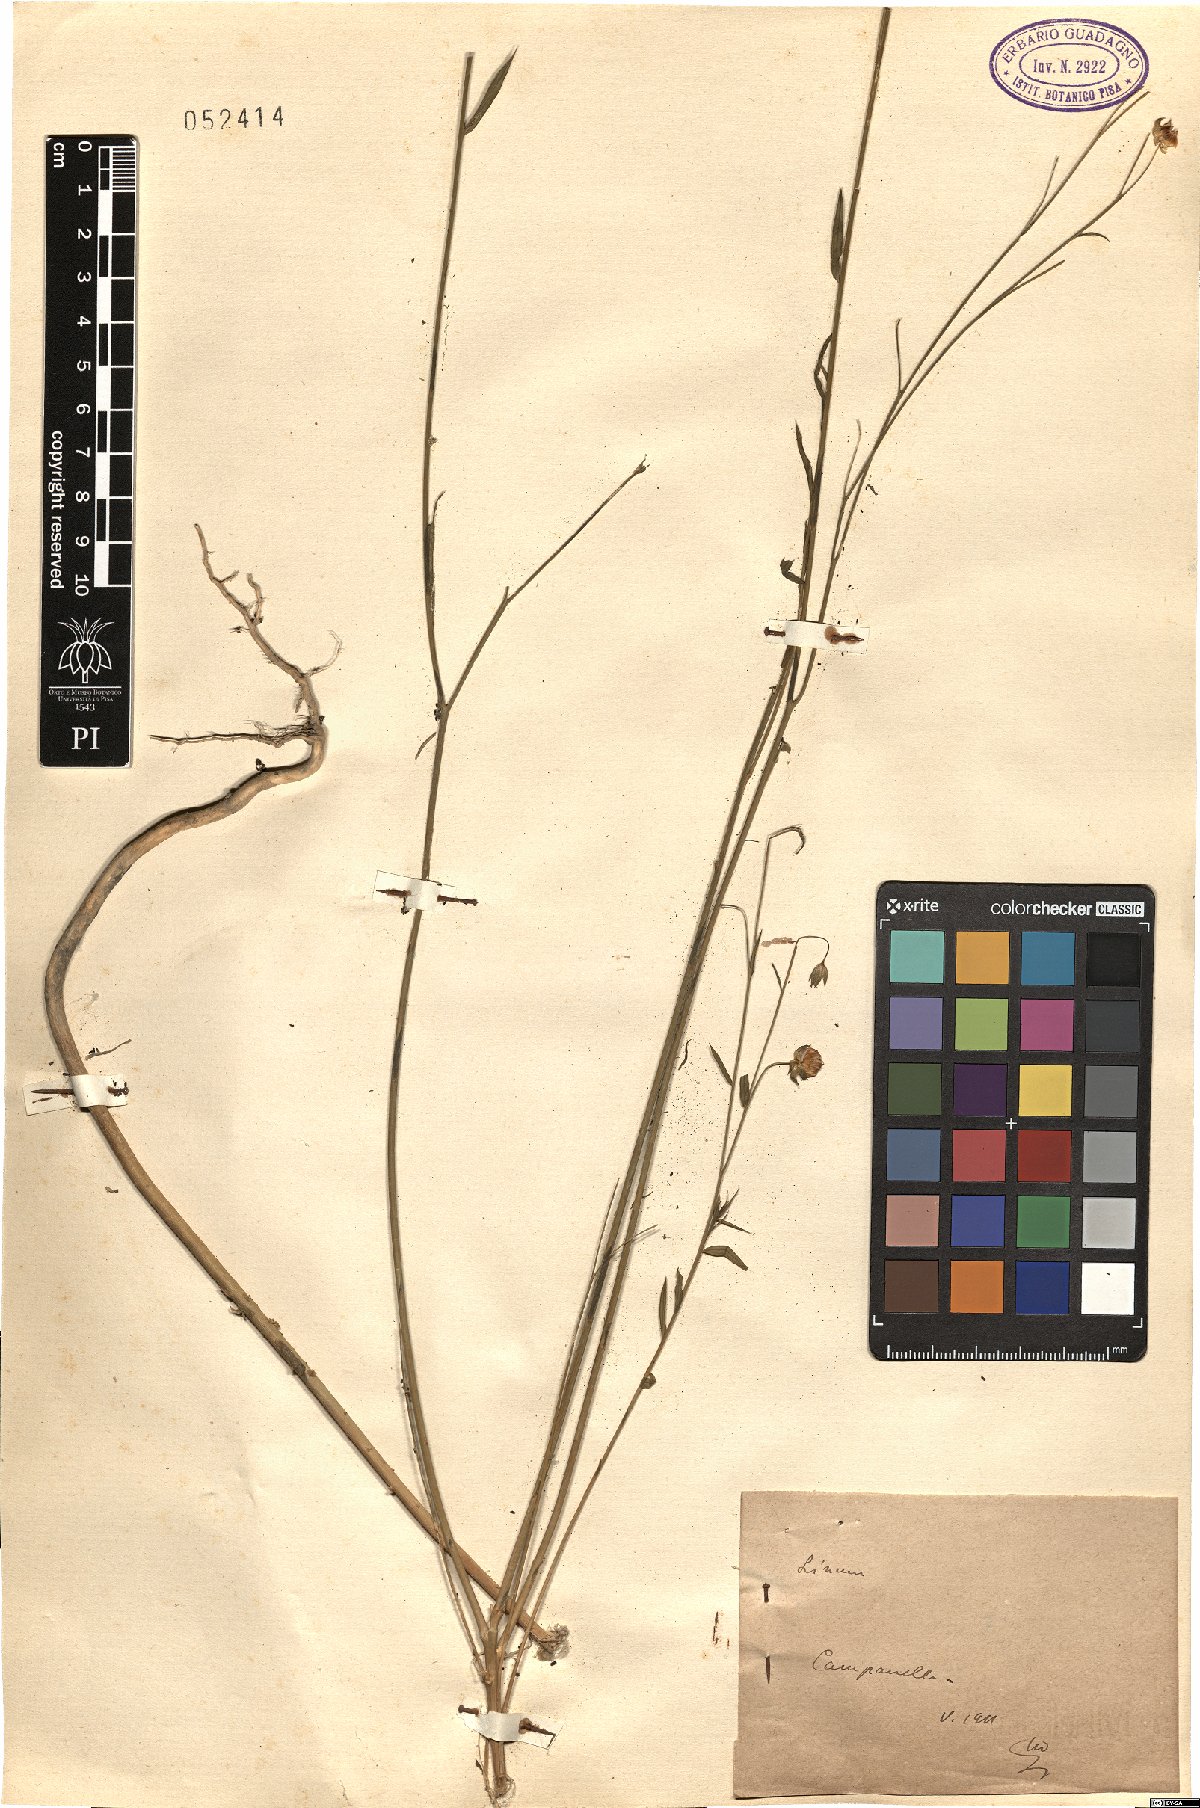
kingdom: Plantae
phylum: Tracheophyta
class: Magnoliopsida
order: Malpighiales
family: Linaceae
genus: Linum
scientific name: Linum
